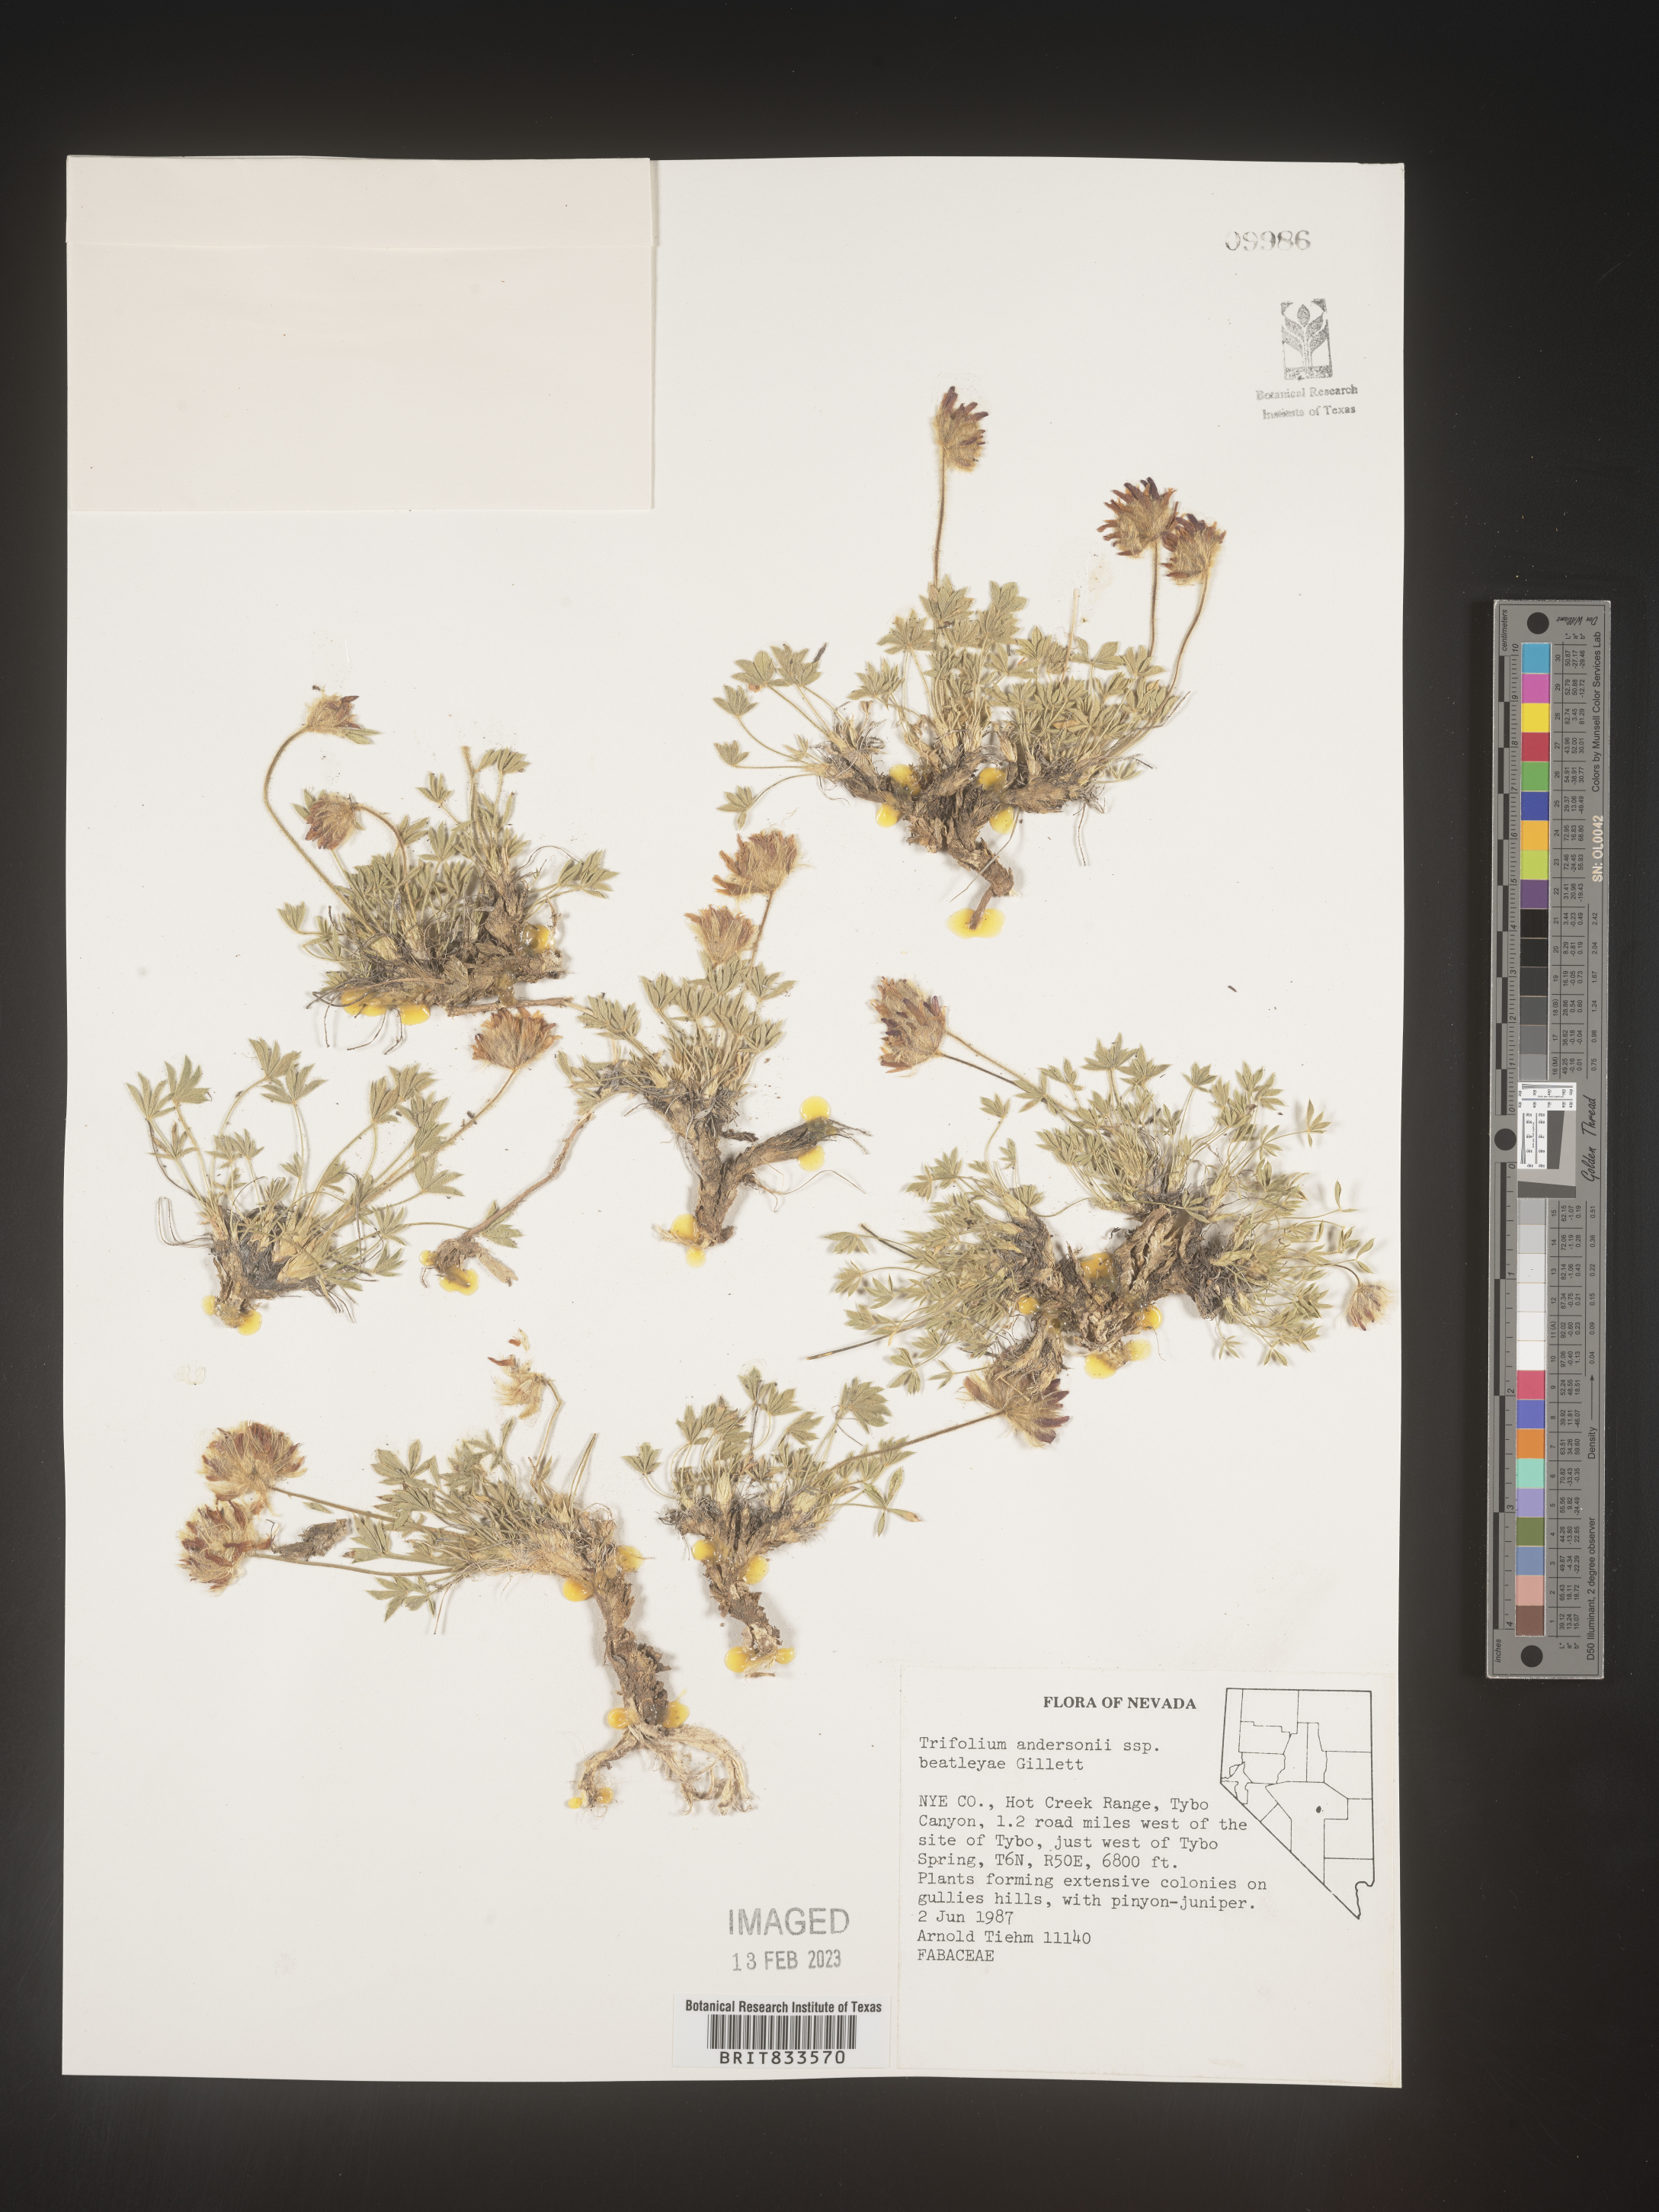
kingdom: Plantae
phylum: Tracheophyta
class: Magnoliopsida
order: Fabales
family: Fabaceae
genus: Trifolium
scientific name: Trifolium
